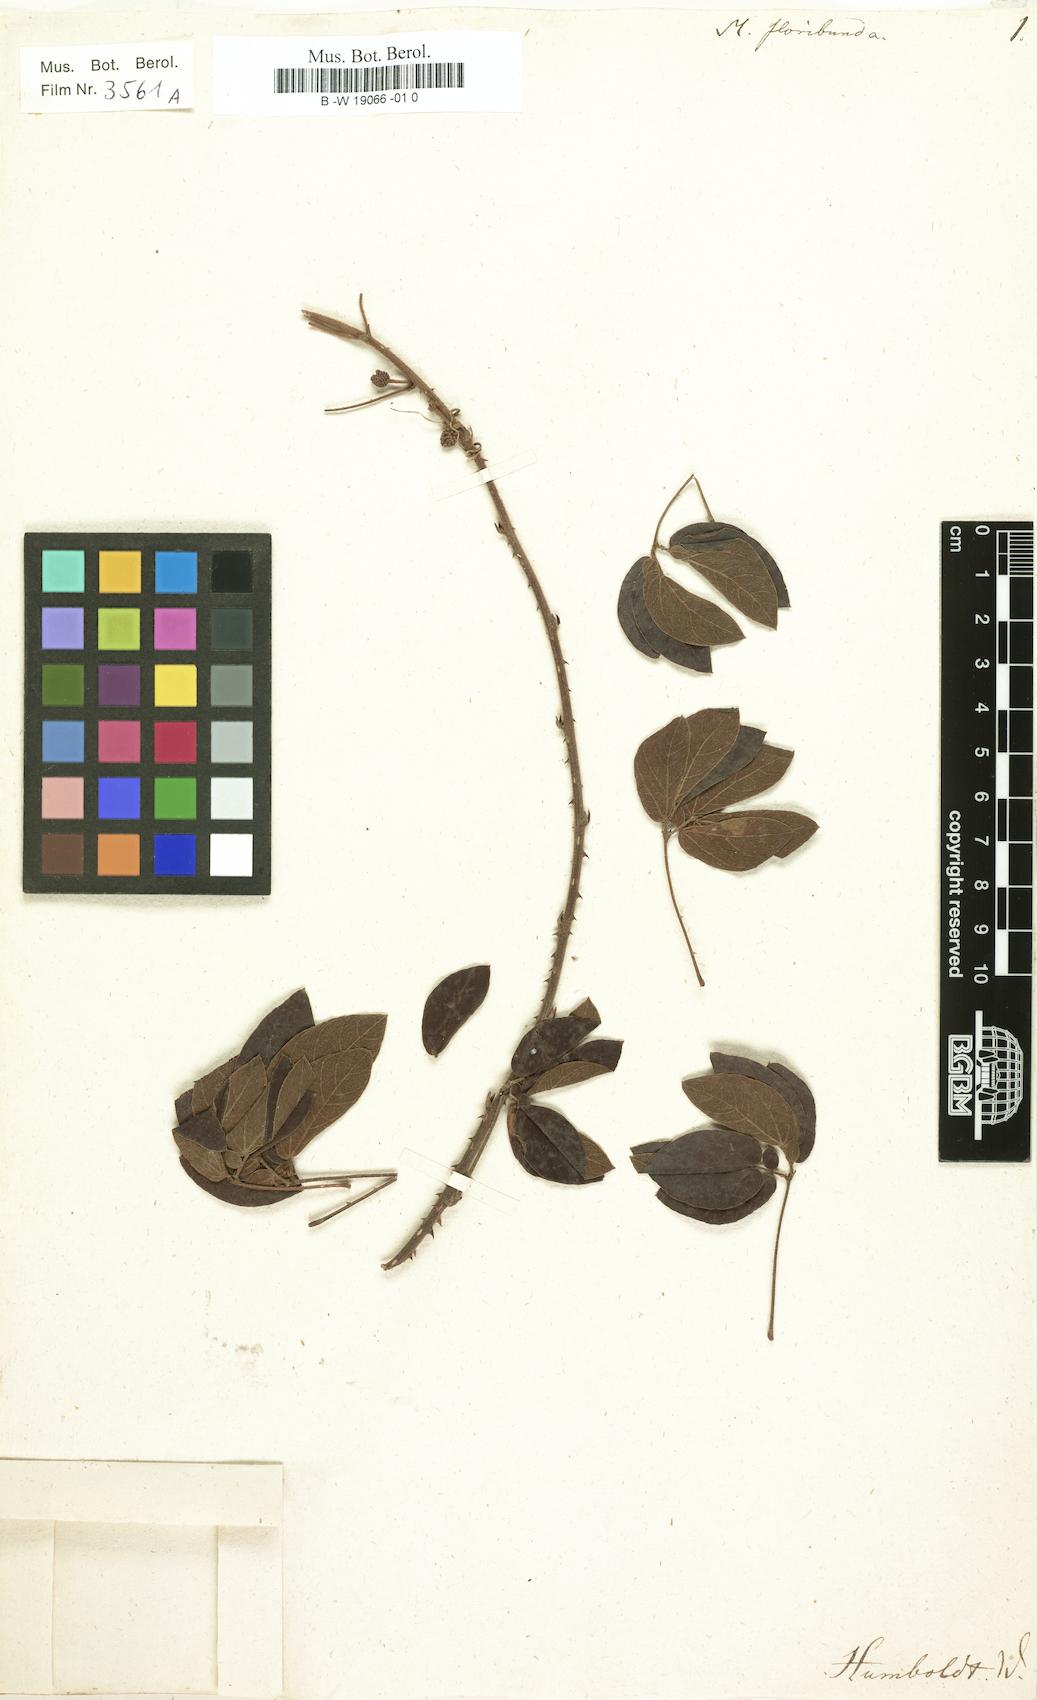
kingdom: Plantae
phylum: Tracheophyta
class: Magnoliopsida
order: Fabales
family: Fabaceae
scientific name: Fabaceae
